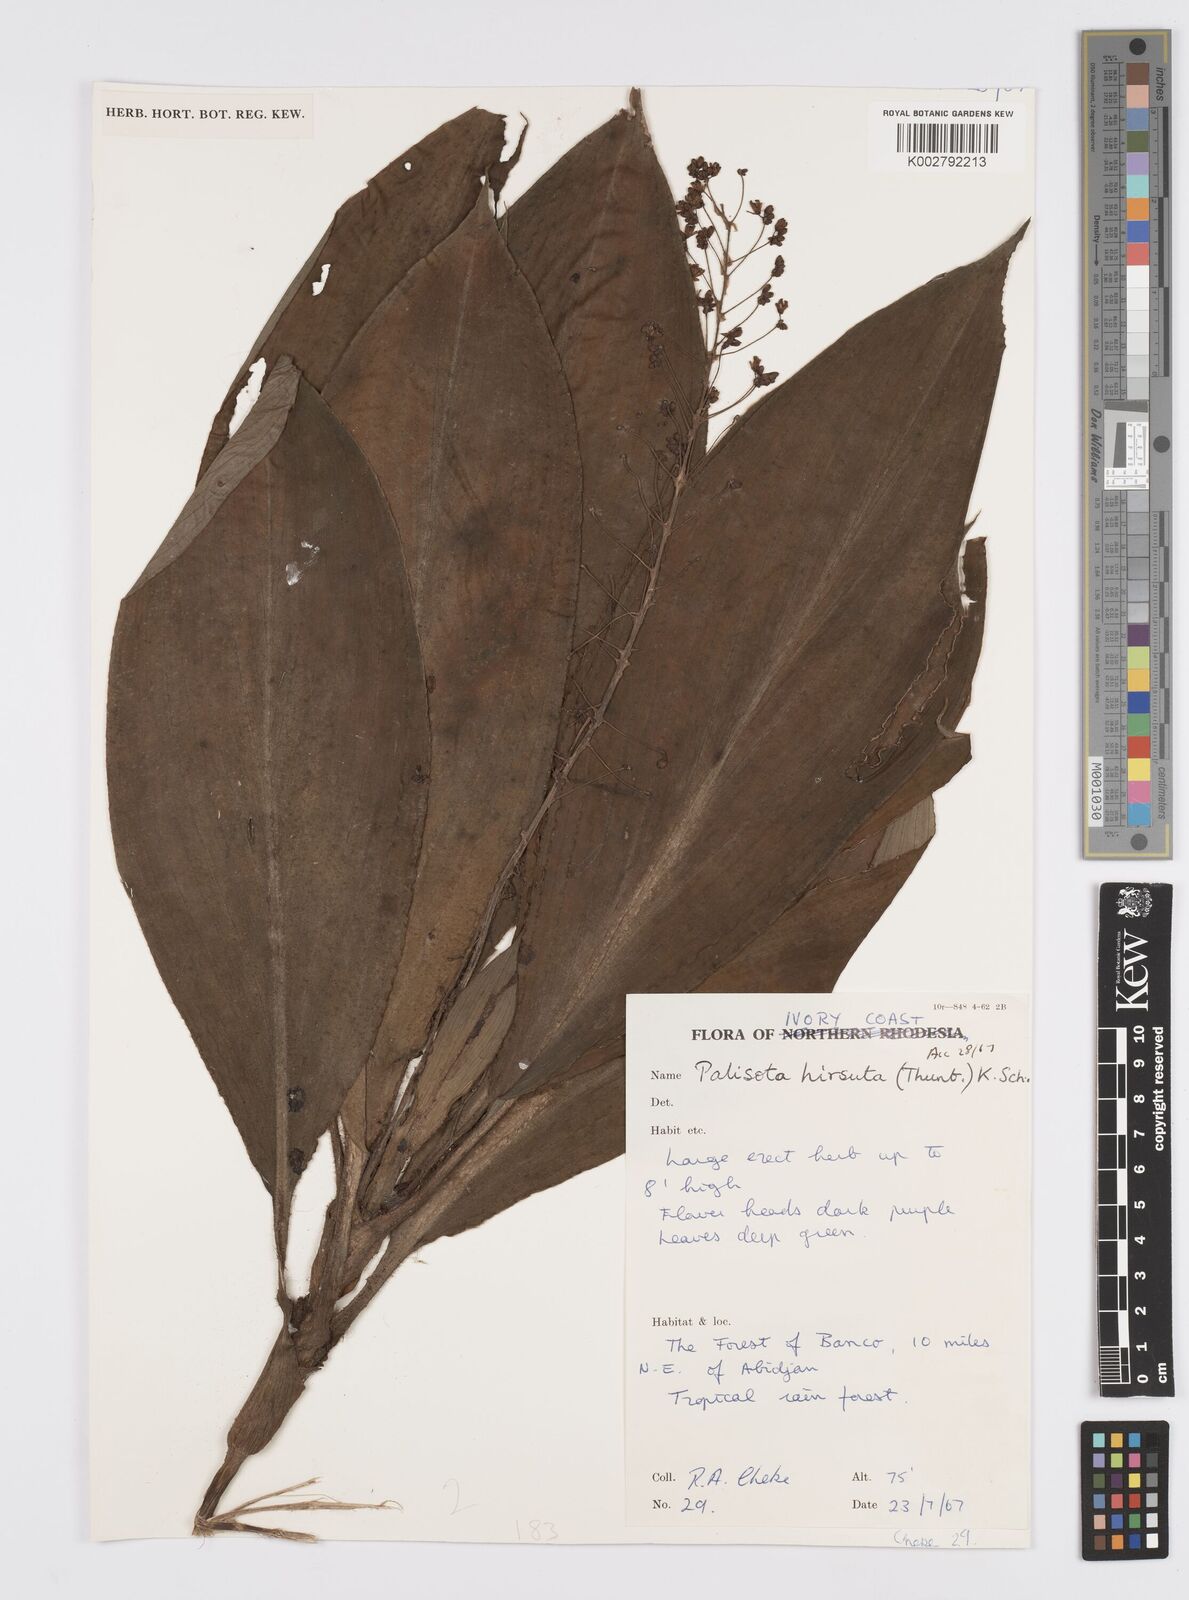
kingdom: Plantae
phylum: Tracheophyta
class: Liliopsida
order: Commelinales
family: Commelinaceae
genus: Palisota
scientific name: Palisota hirsuta
